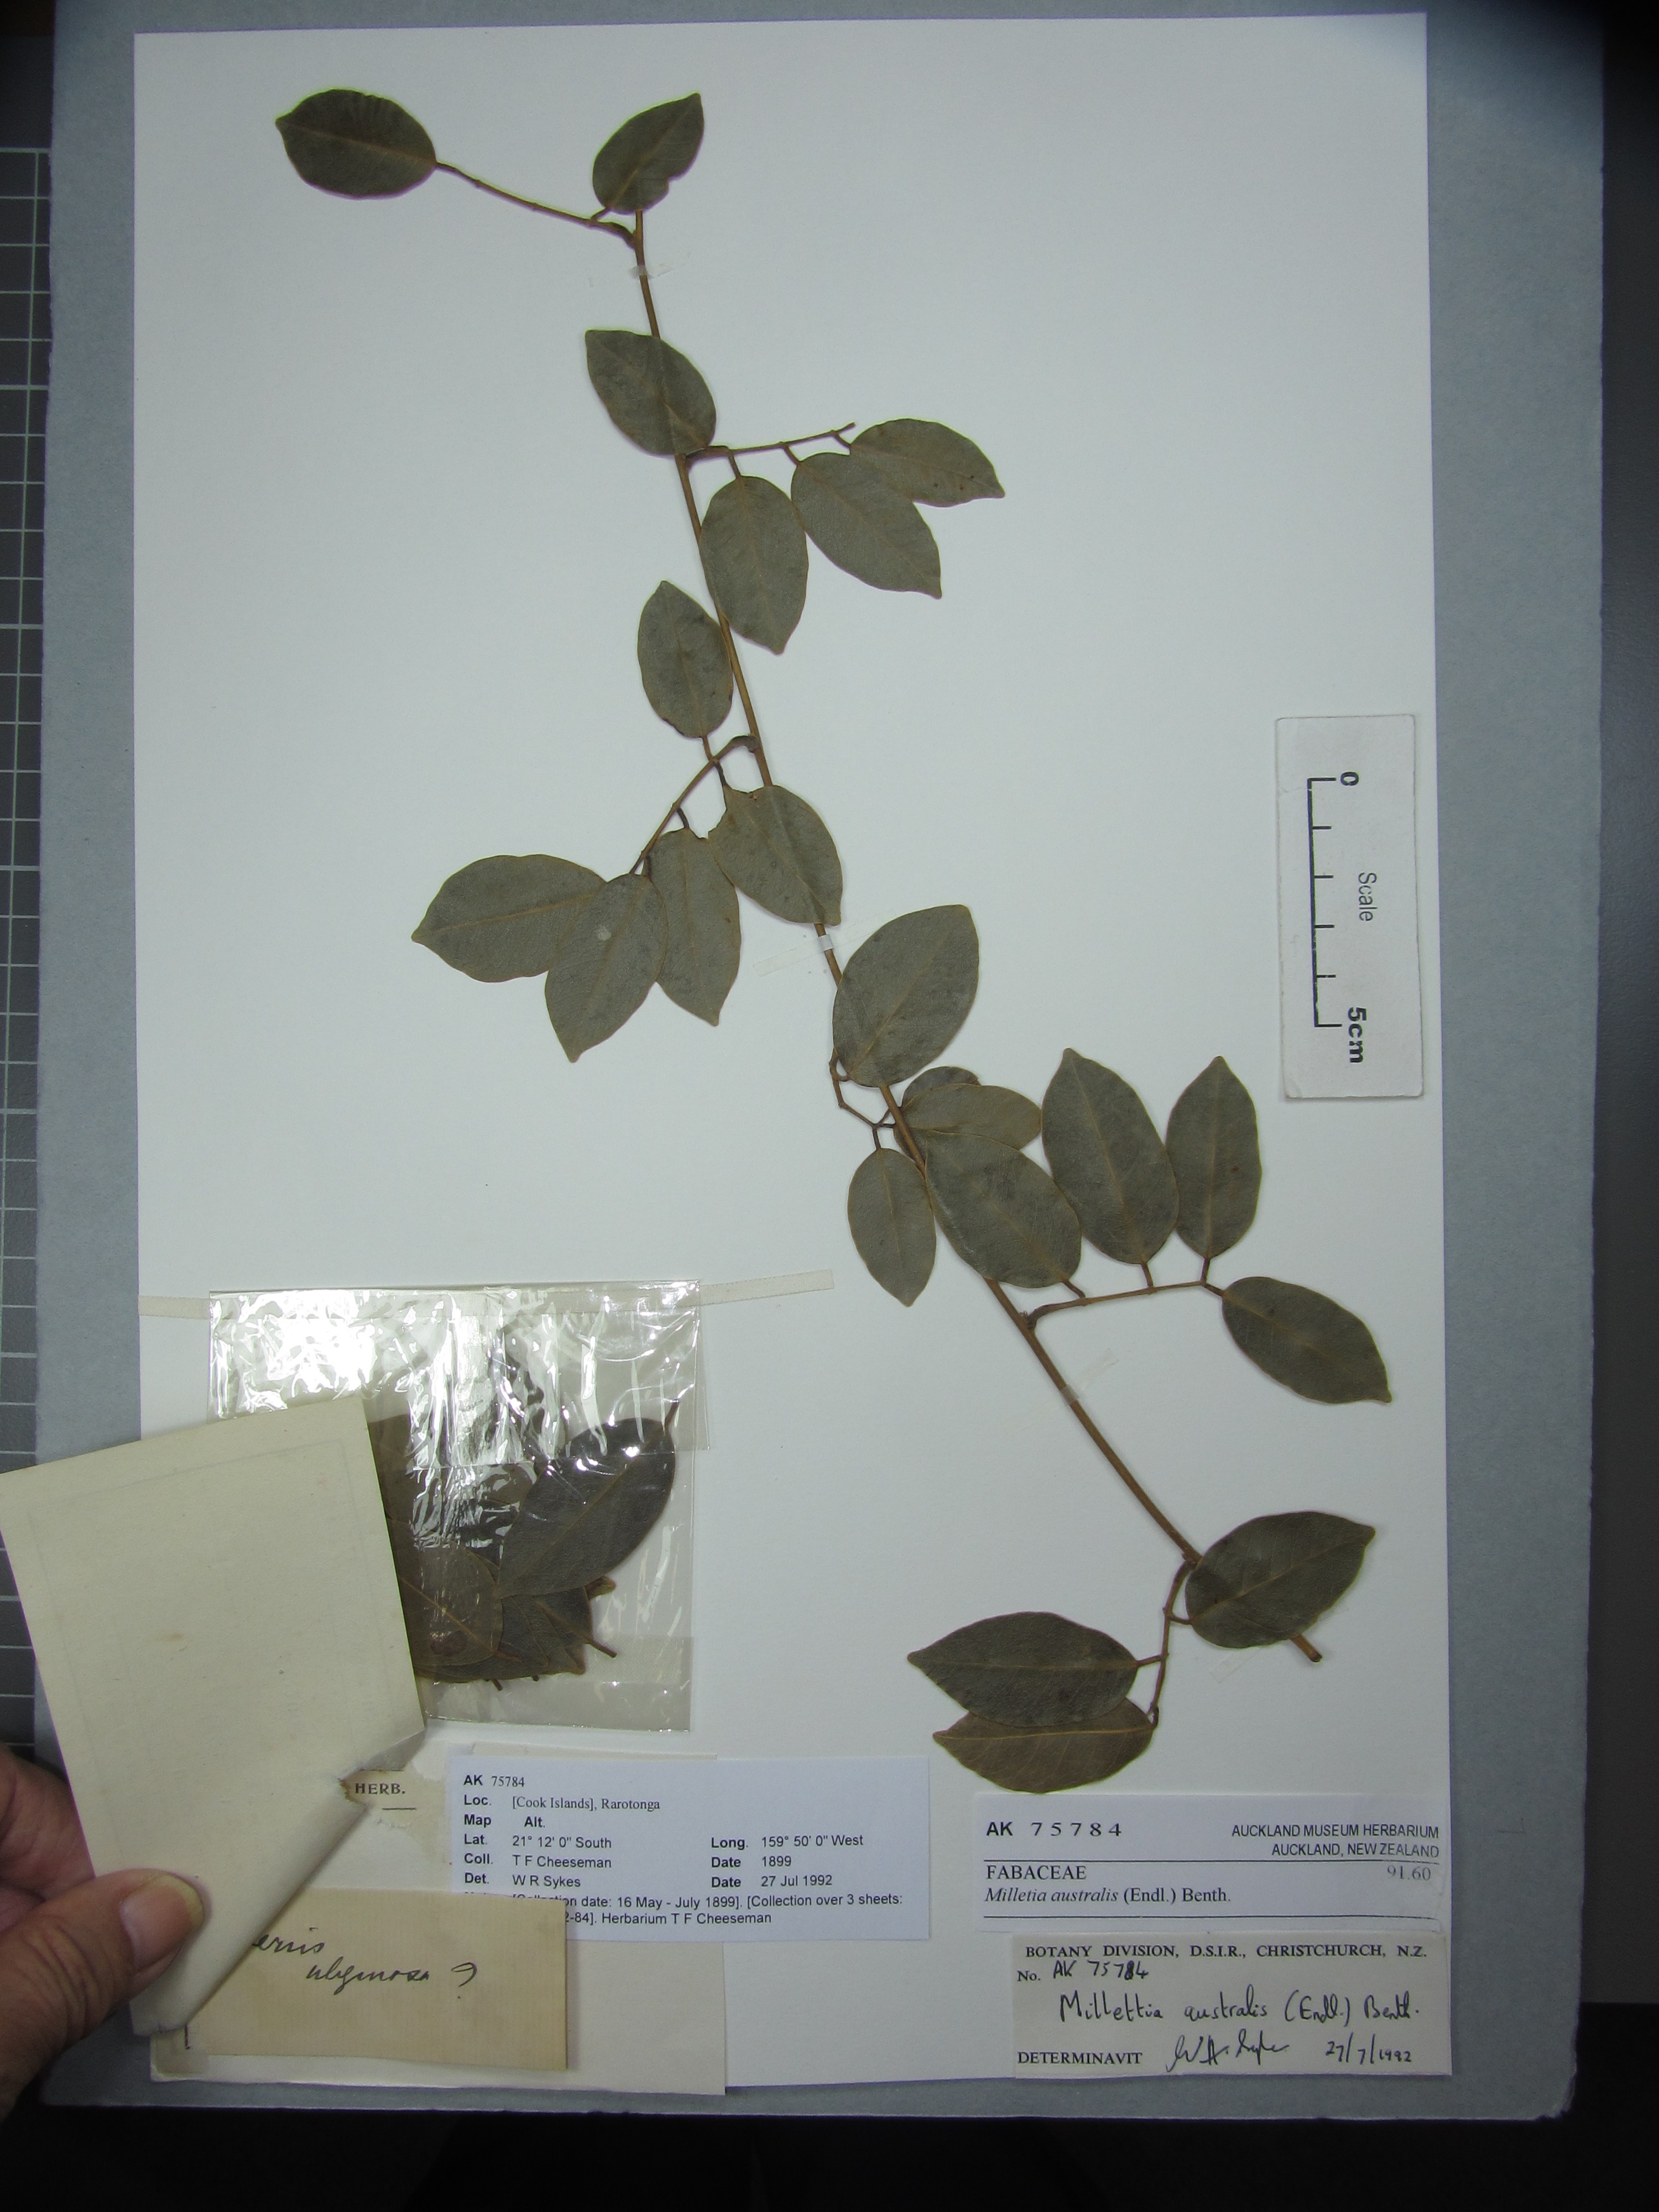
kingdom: Plantae
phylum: Tracheophyta
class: Magnoliopsida
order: Fabales
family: Fabaceae
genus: Austrocallerya
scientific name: Austrocallerya australis
